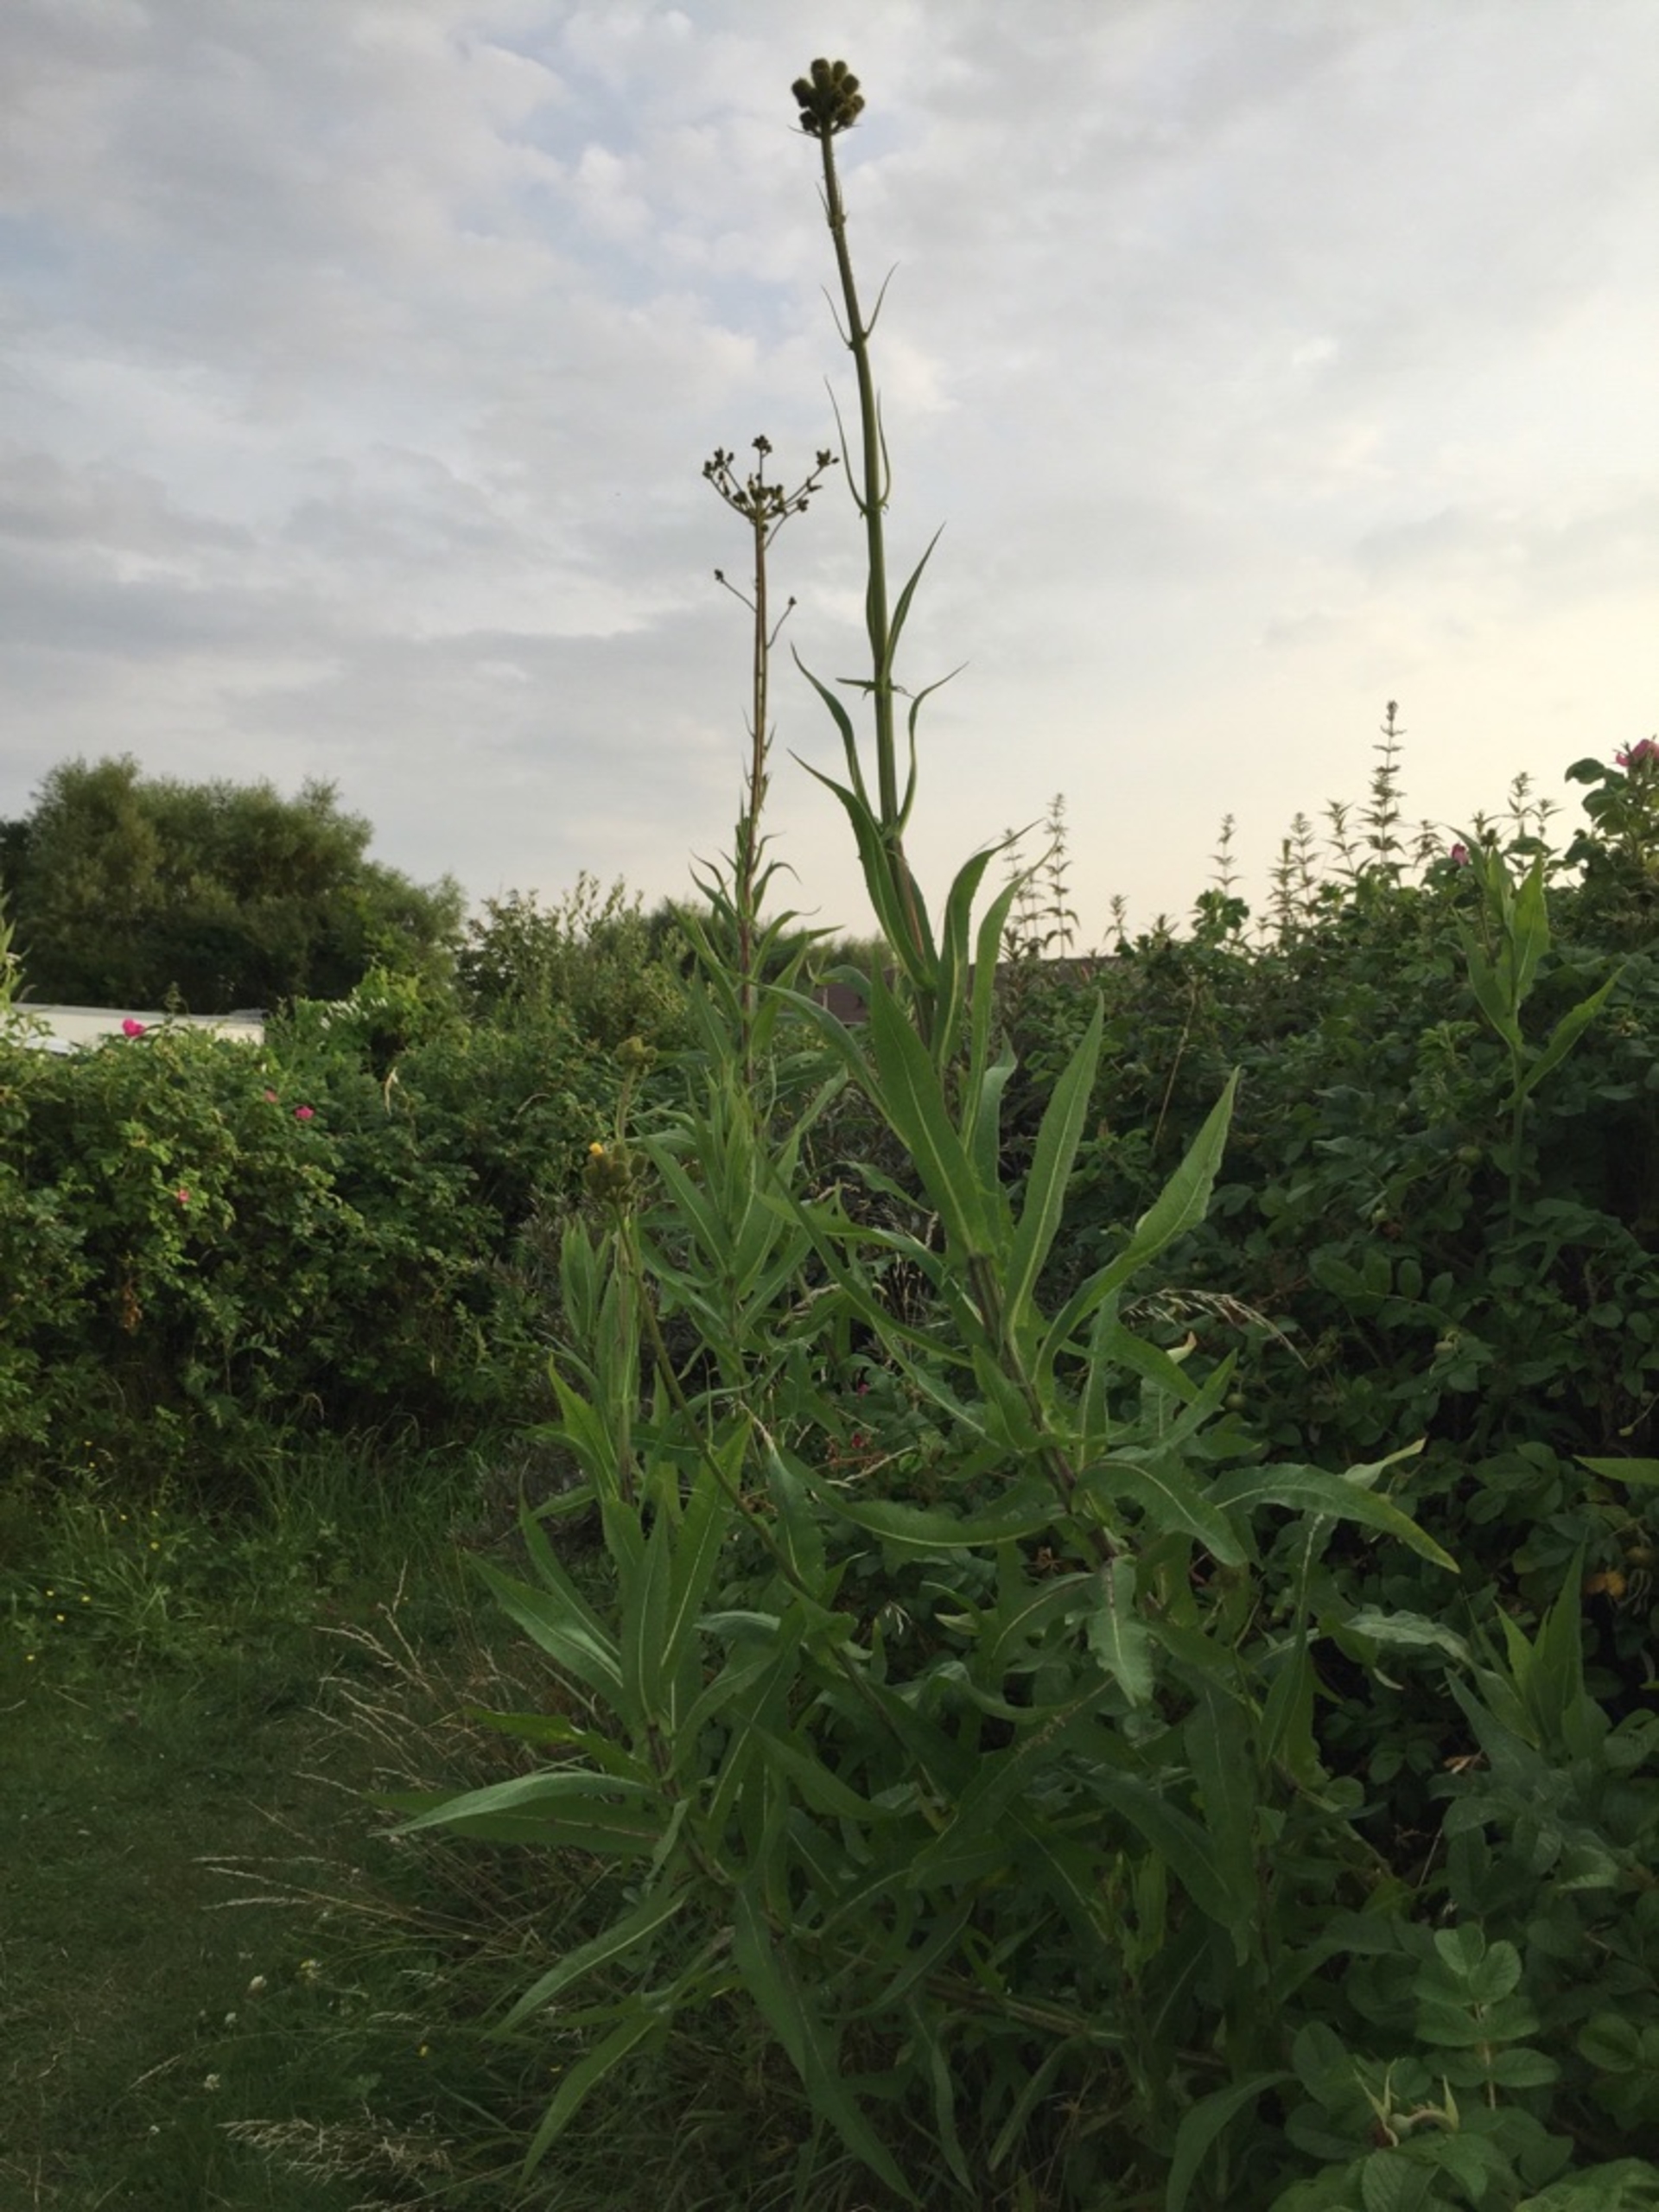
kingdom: Plantae
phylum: Tracheophyta
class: Magnoliopsida
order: Asterales
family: Asteraceae
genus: Sonchus
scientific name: Sonchus palustris
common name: Kær-svinemælk
